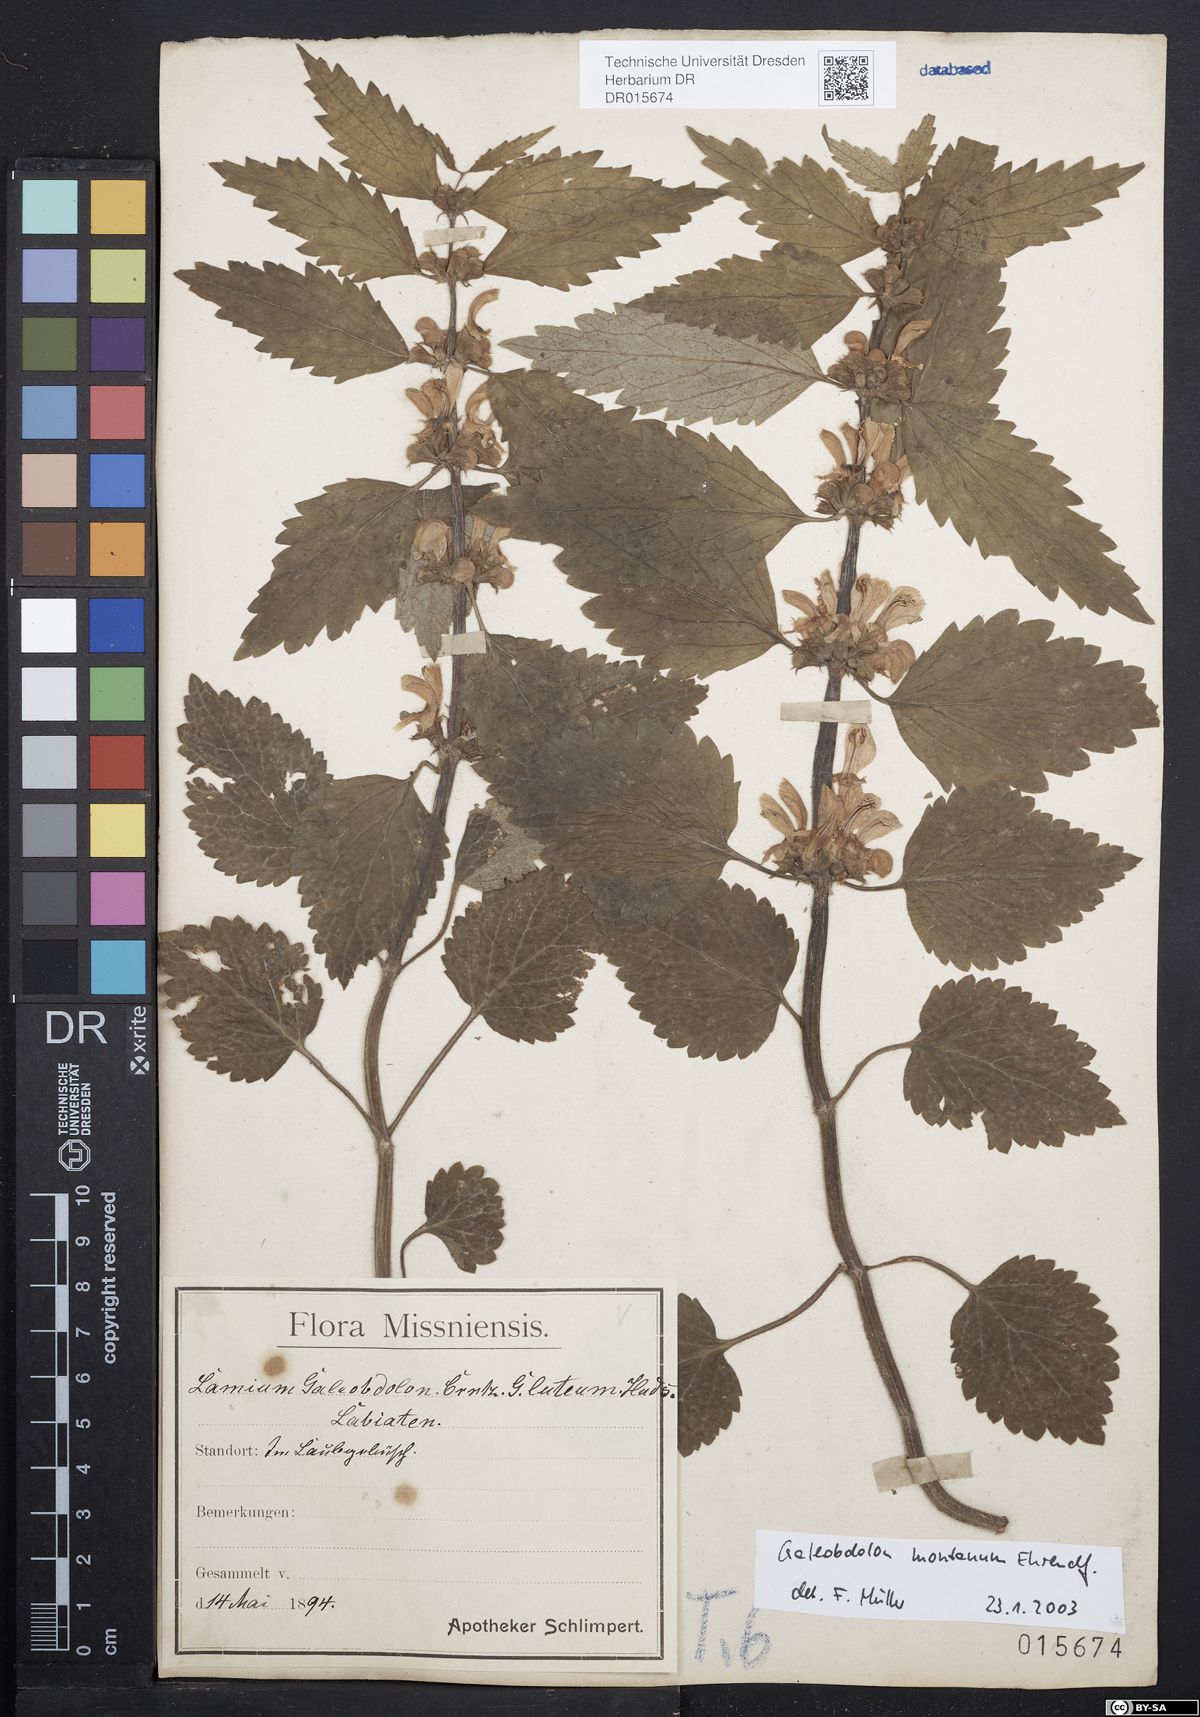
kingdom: Plantae
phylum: Tracheophyta
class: Magnoliopsida
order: Lamiales
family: Lamiaceae
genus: Lamium
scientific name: Lamium galeobdolon
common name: Yellow archangel
